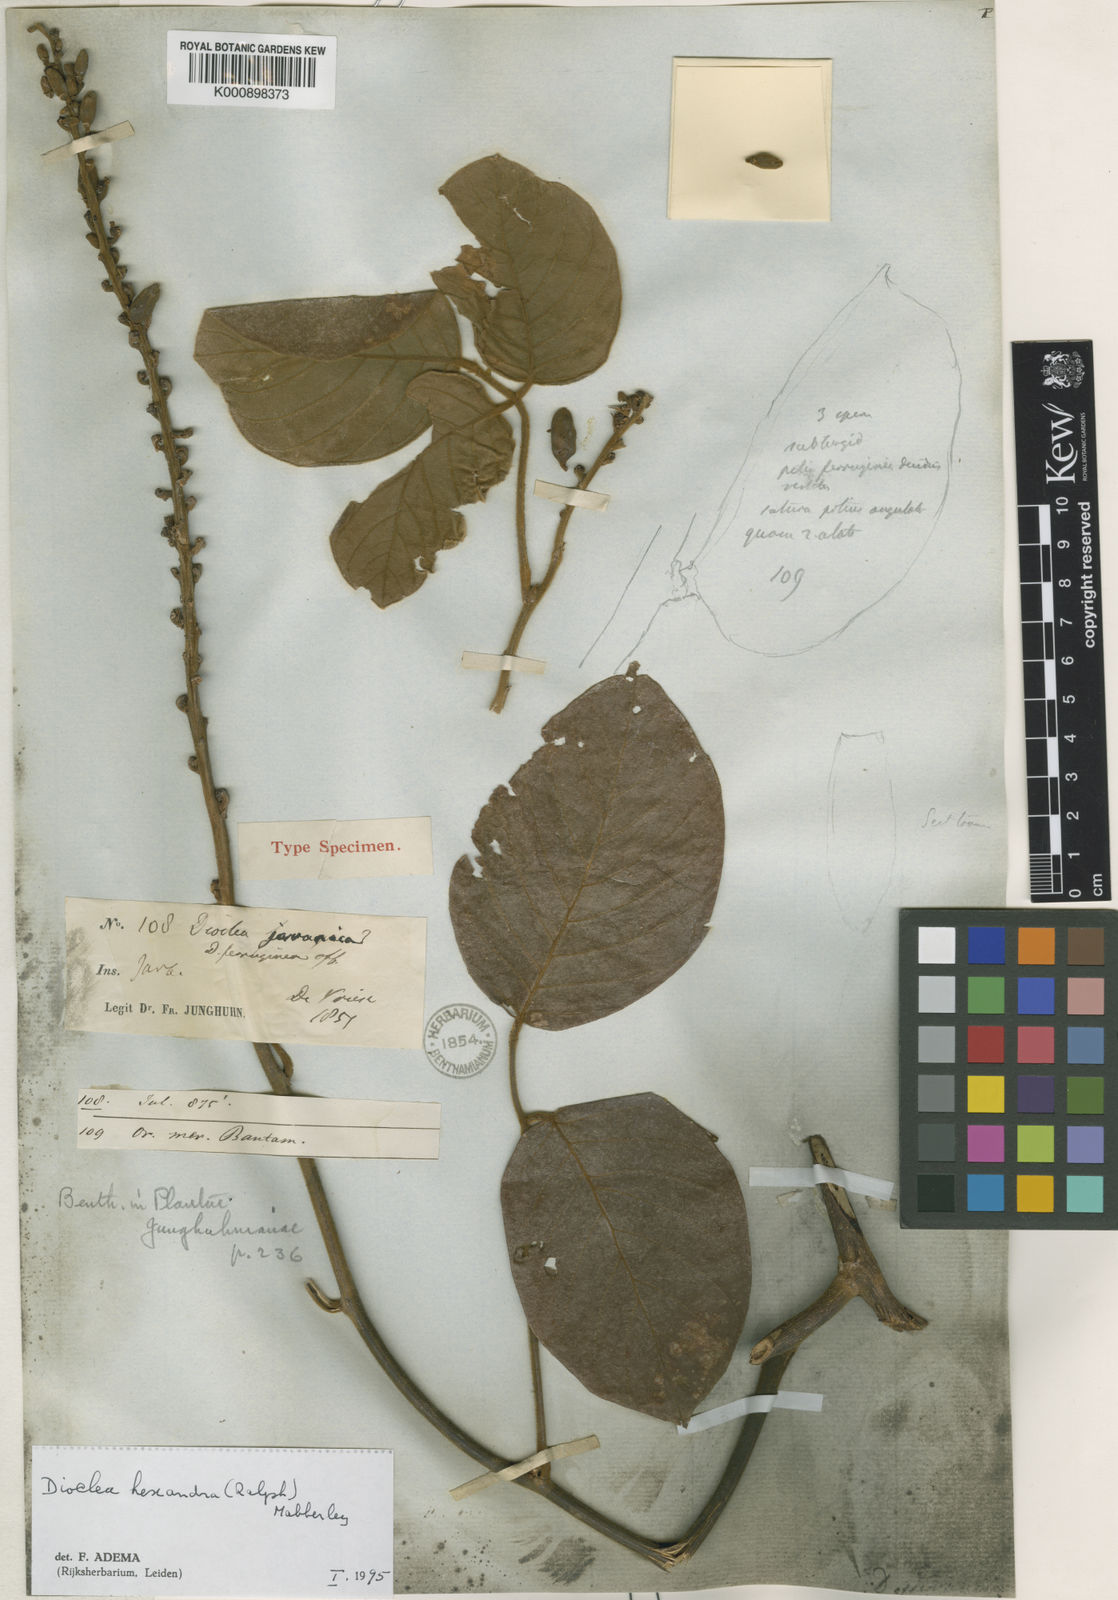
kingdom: Plantae
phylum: Tracheophyta
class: Magnoliopsida
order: Fabales
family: Fabaceae
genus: Macropsychanthus
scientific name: Macropsychanthus hexander
